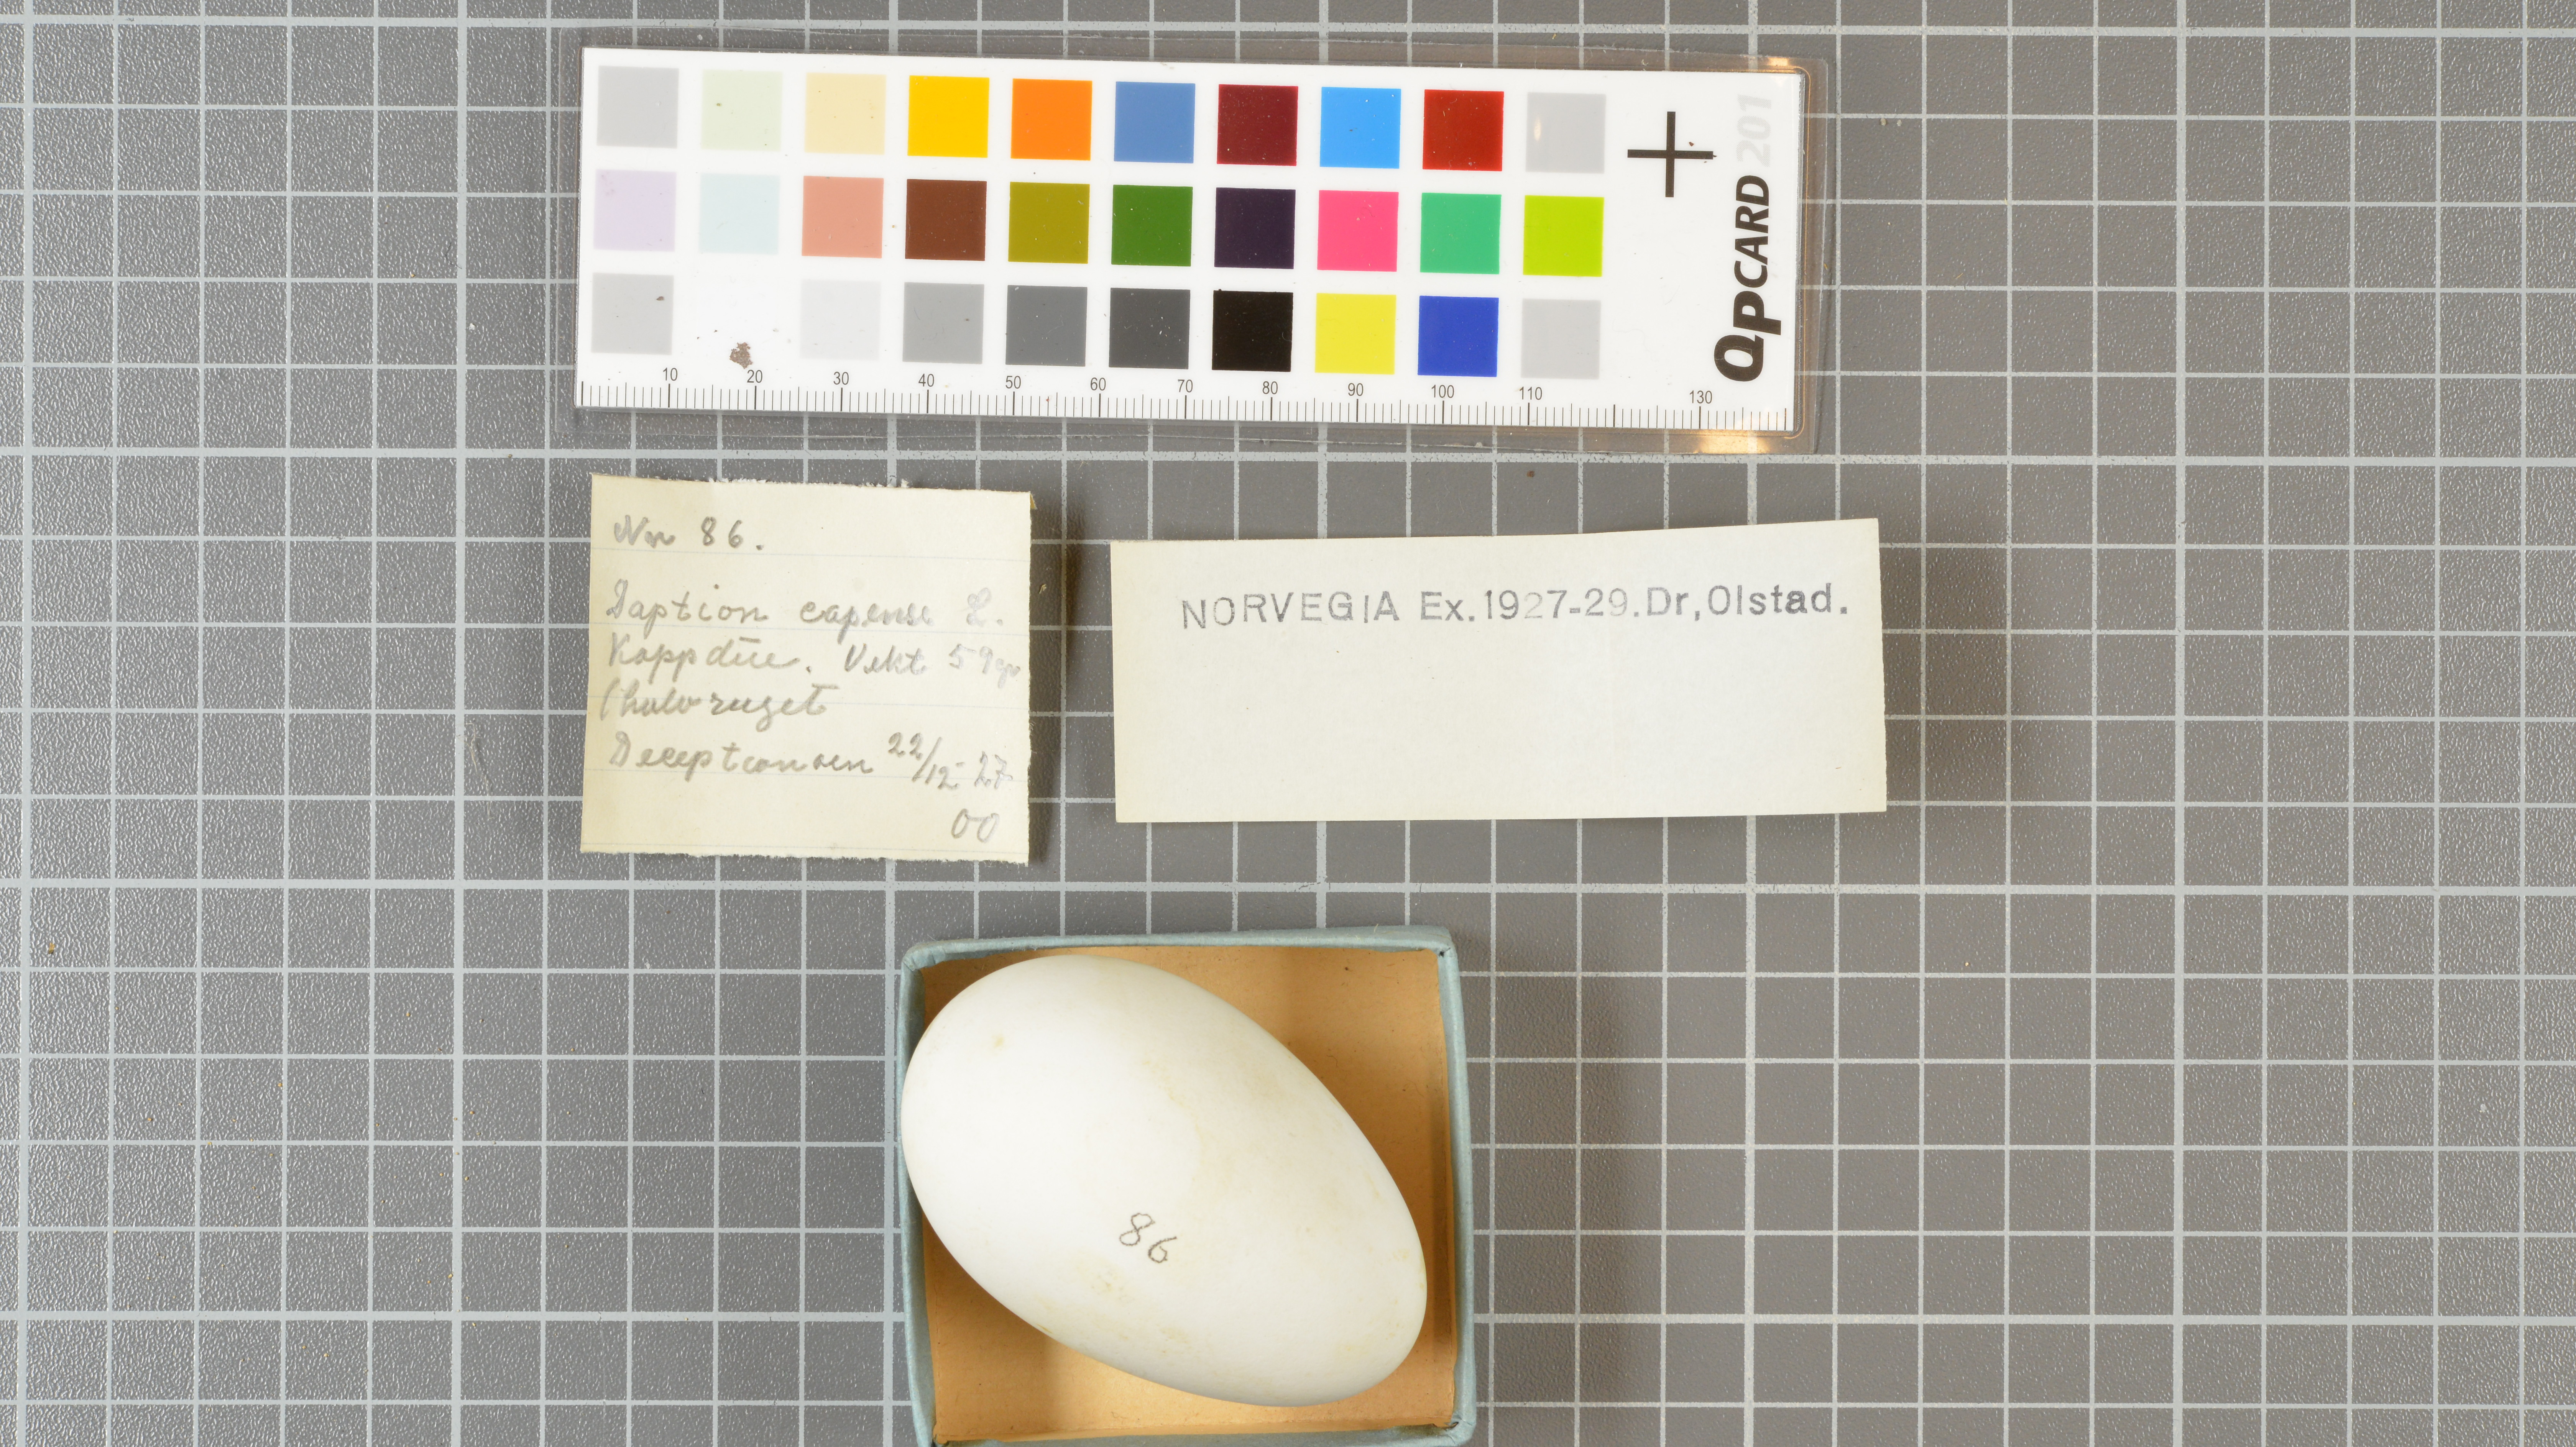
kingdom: Animalia
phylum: Chordata
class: Aves
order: Procellariiformes
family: Procellariidae
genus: Daption
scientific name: Daption capense
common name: Cape petrel
